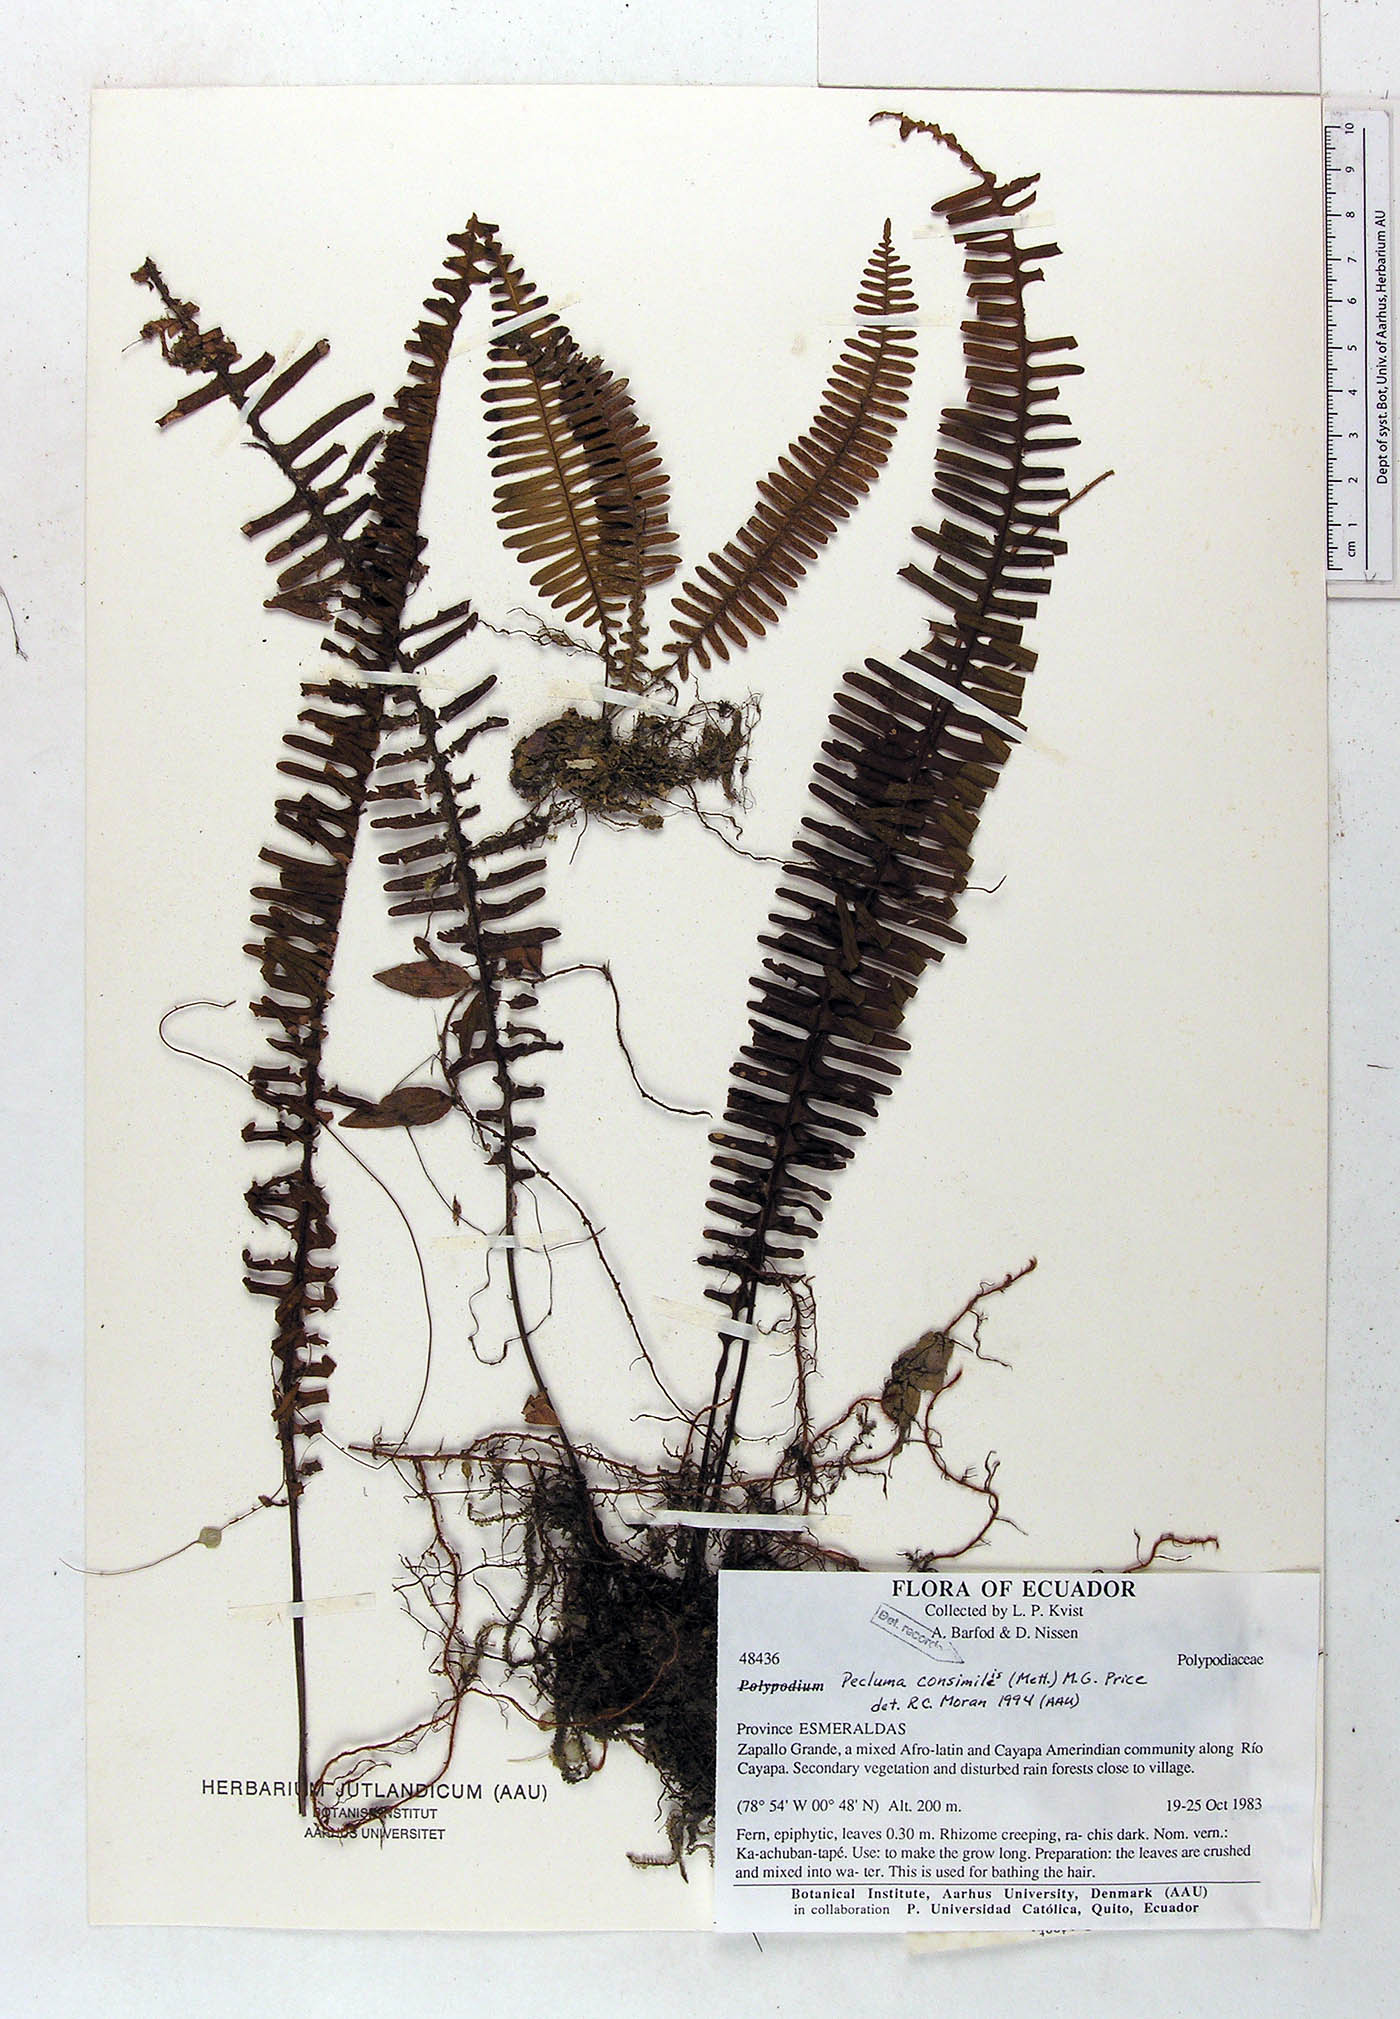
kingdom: Plantae
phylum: Tracheophyta
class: Polypodiopsida
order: Polypodiales
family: Polypodiaceae
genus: Pecluma
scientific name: Pecluma consimilis
